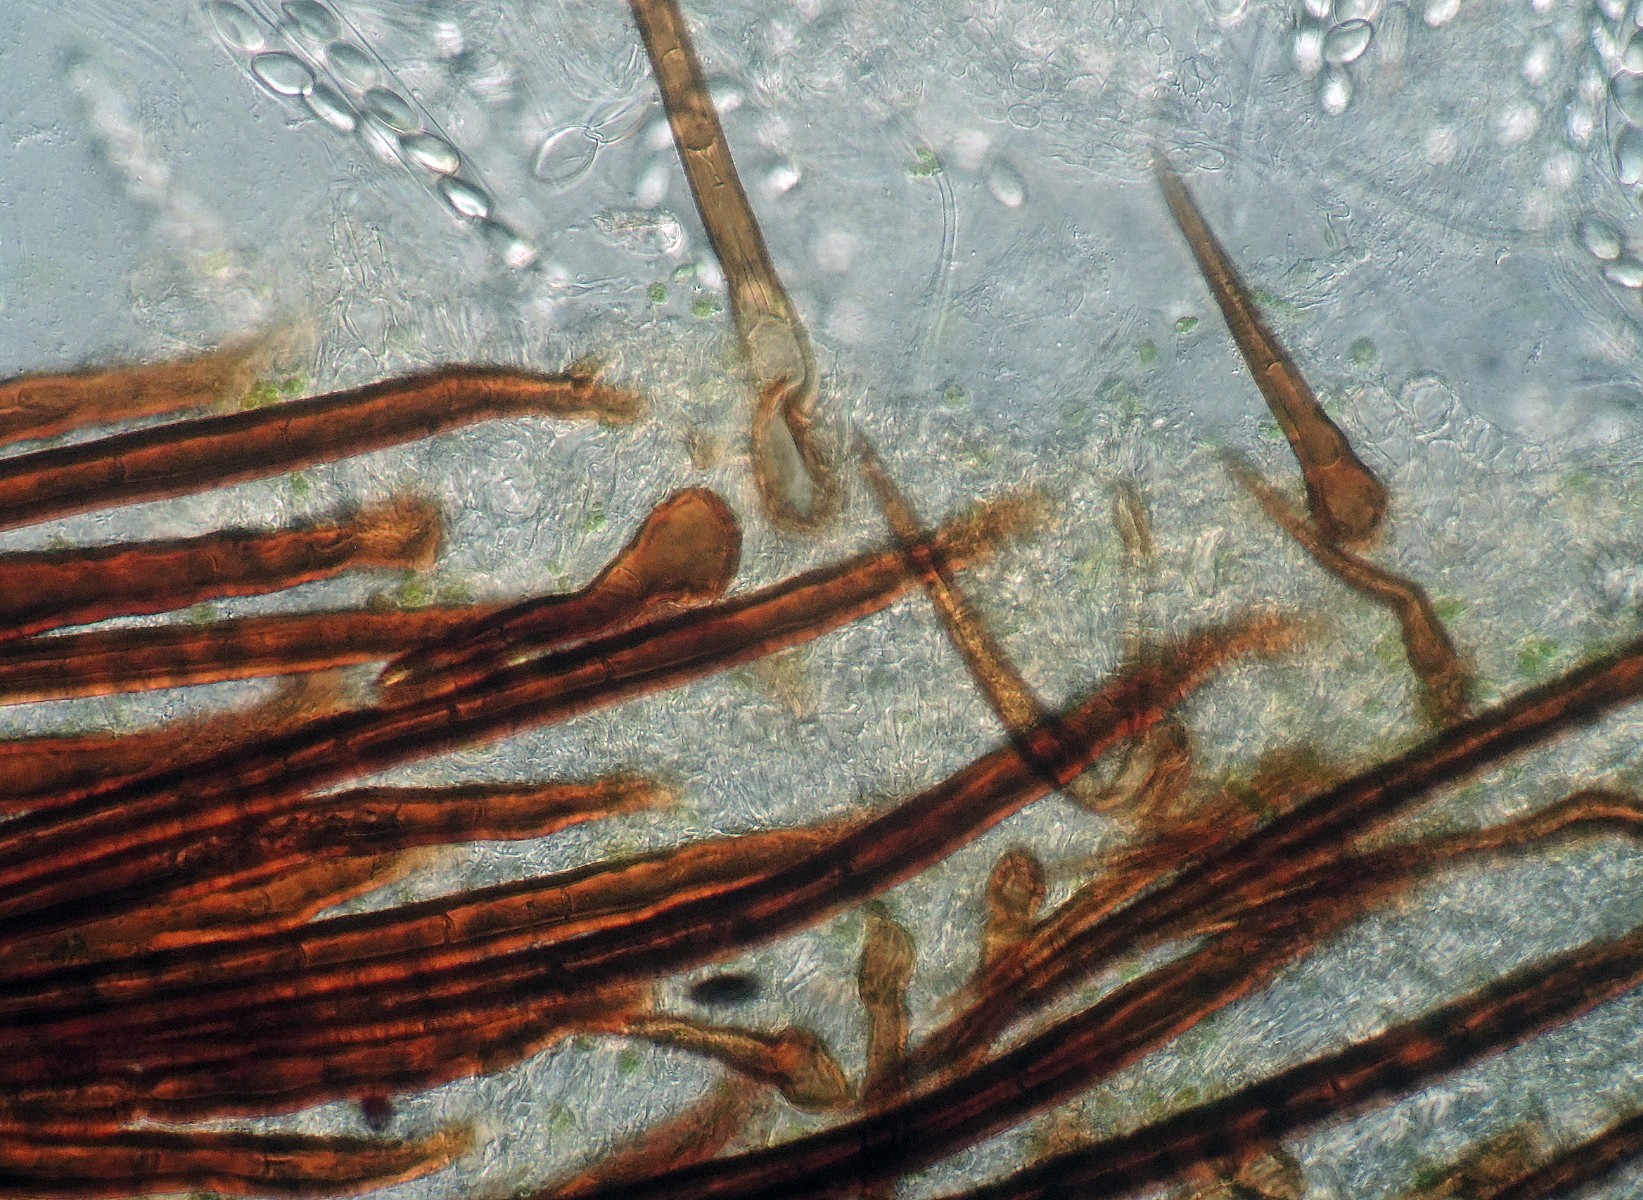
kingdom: Fungi
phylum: Ascomycota
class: Pezizomycetes
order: Pezizales
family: Pyronemataceae
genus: Lasiobolidium
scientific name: Lasiobolidium coprophilum
